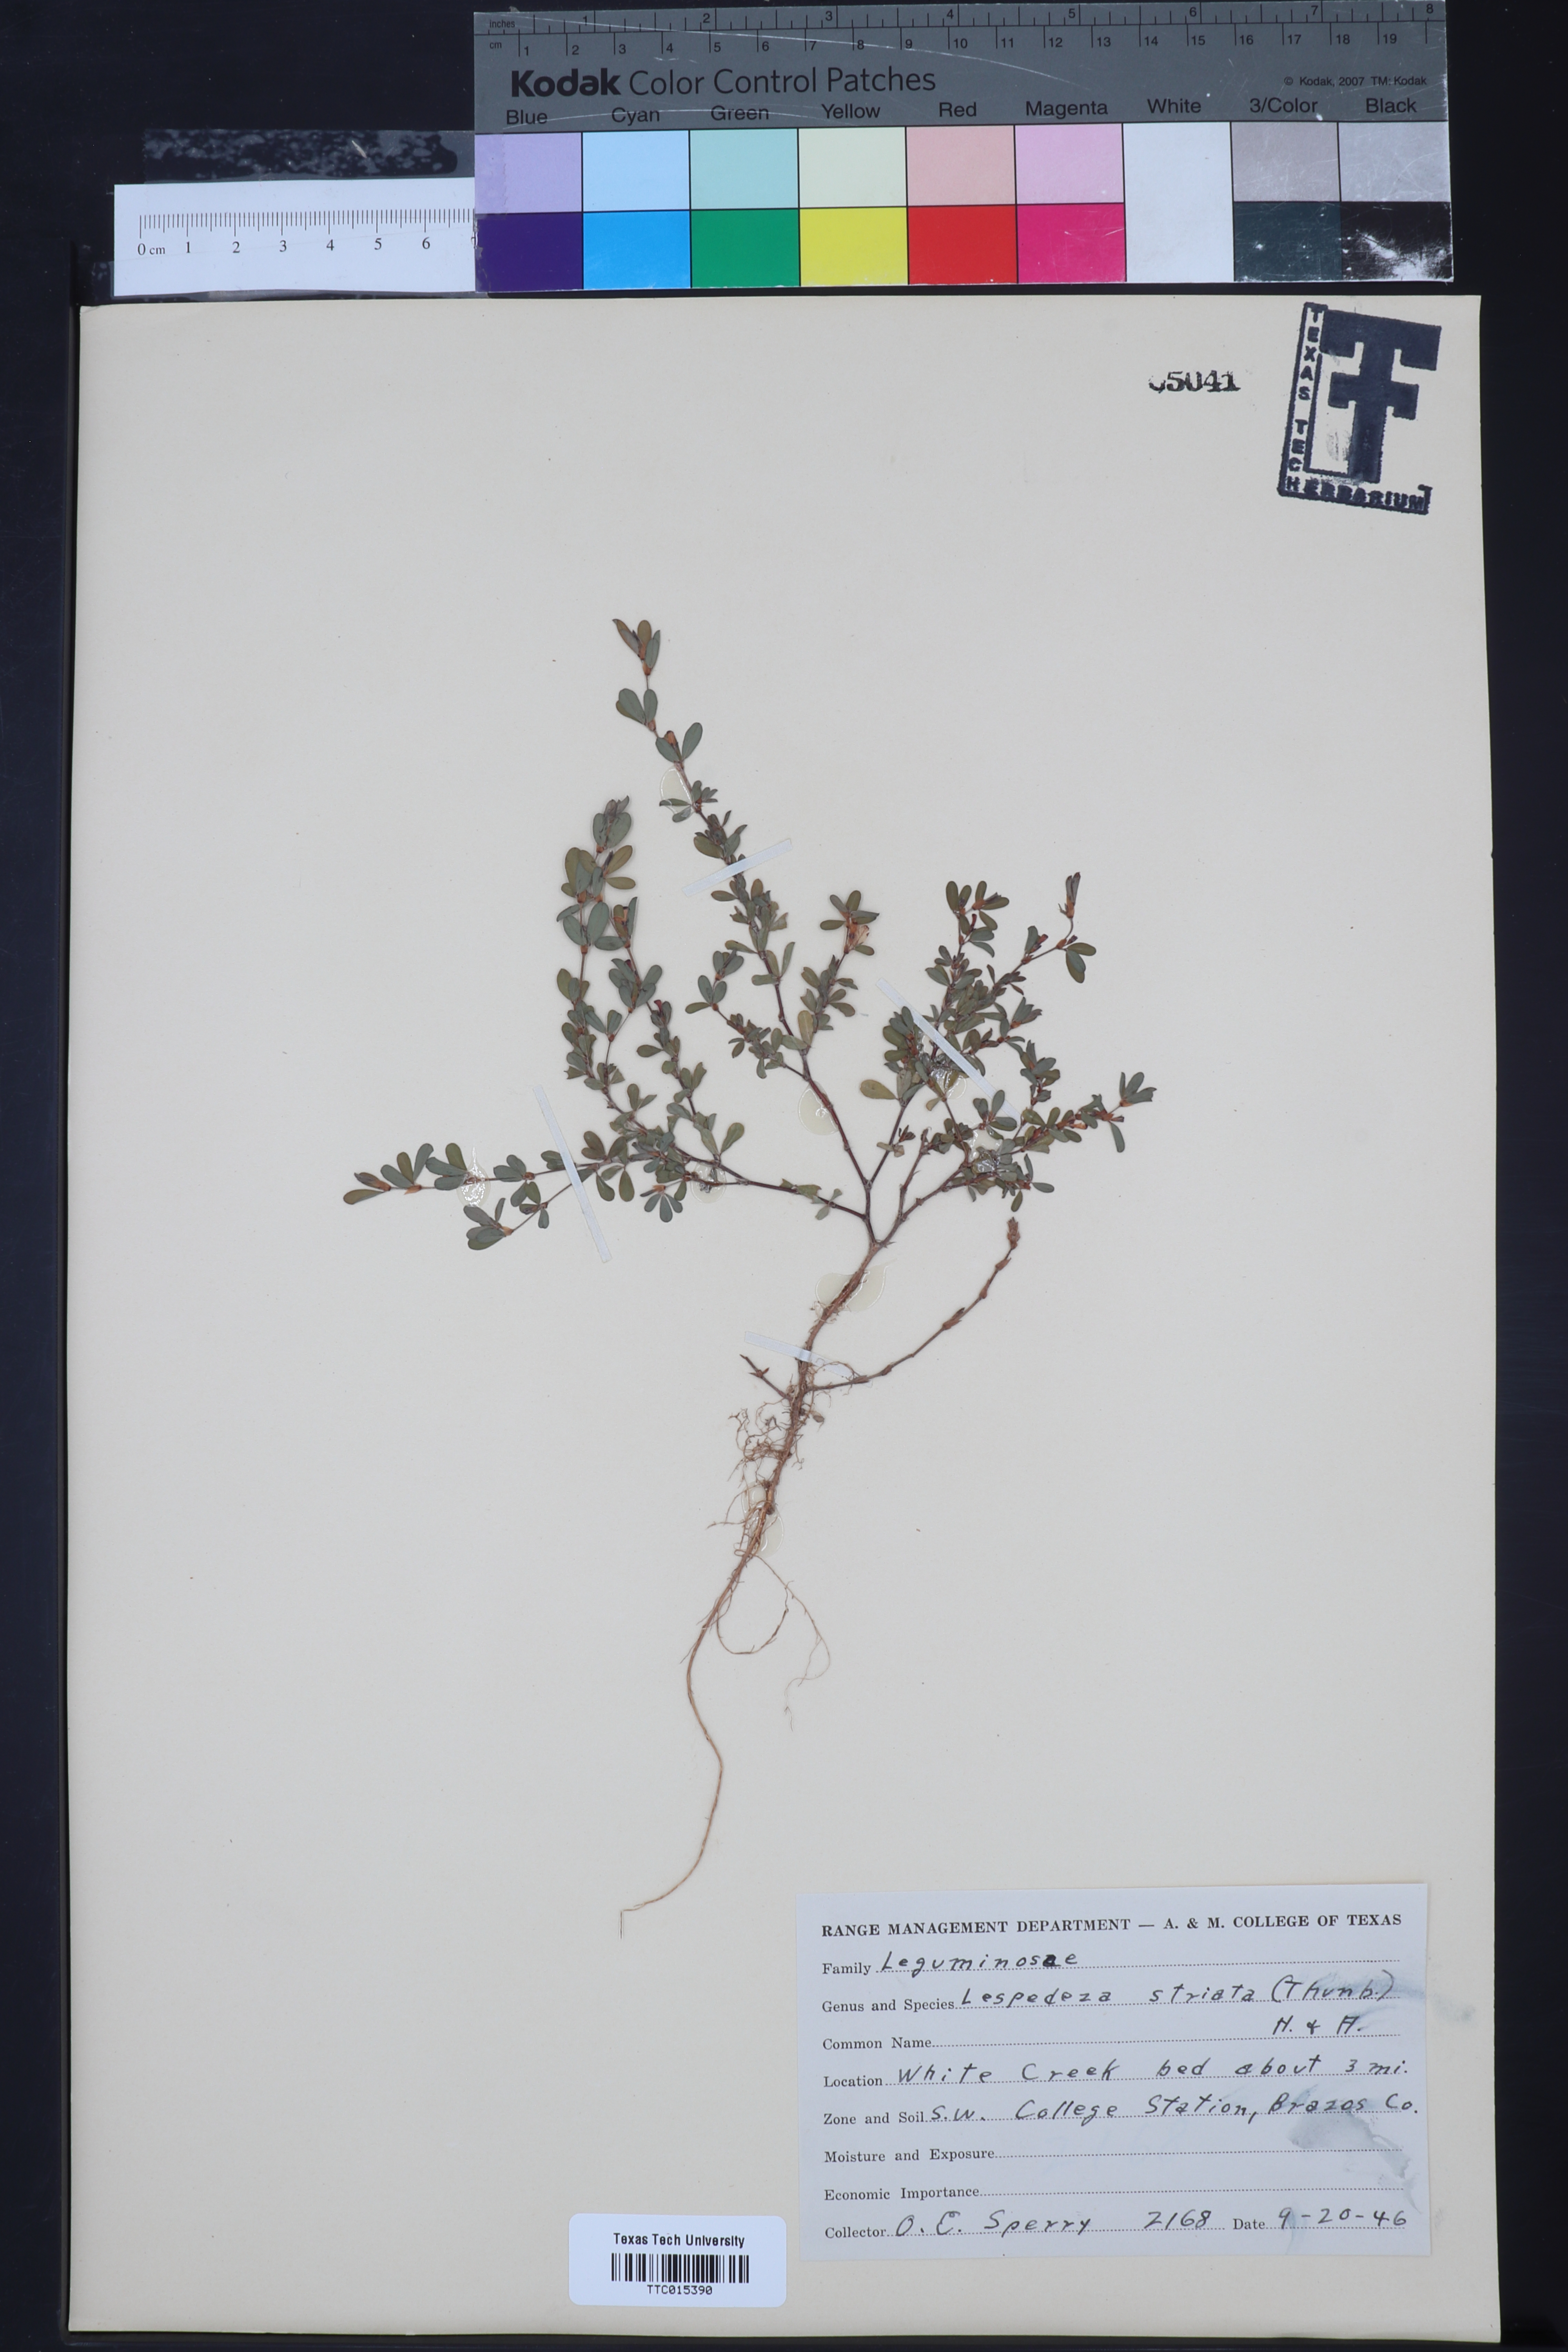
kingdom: Plantae
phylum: Tracheophyta
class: Magnoliopsida
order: Fabales
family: Fabaceae
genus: Kummerowia
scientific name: Kummerowia striata
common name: Japanese clover
